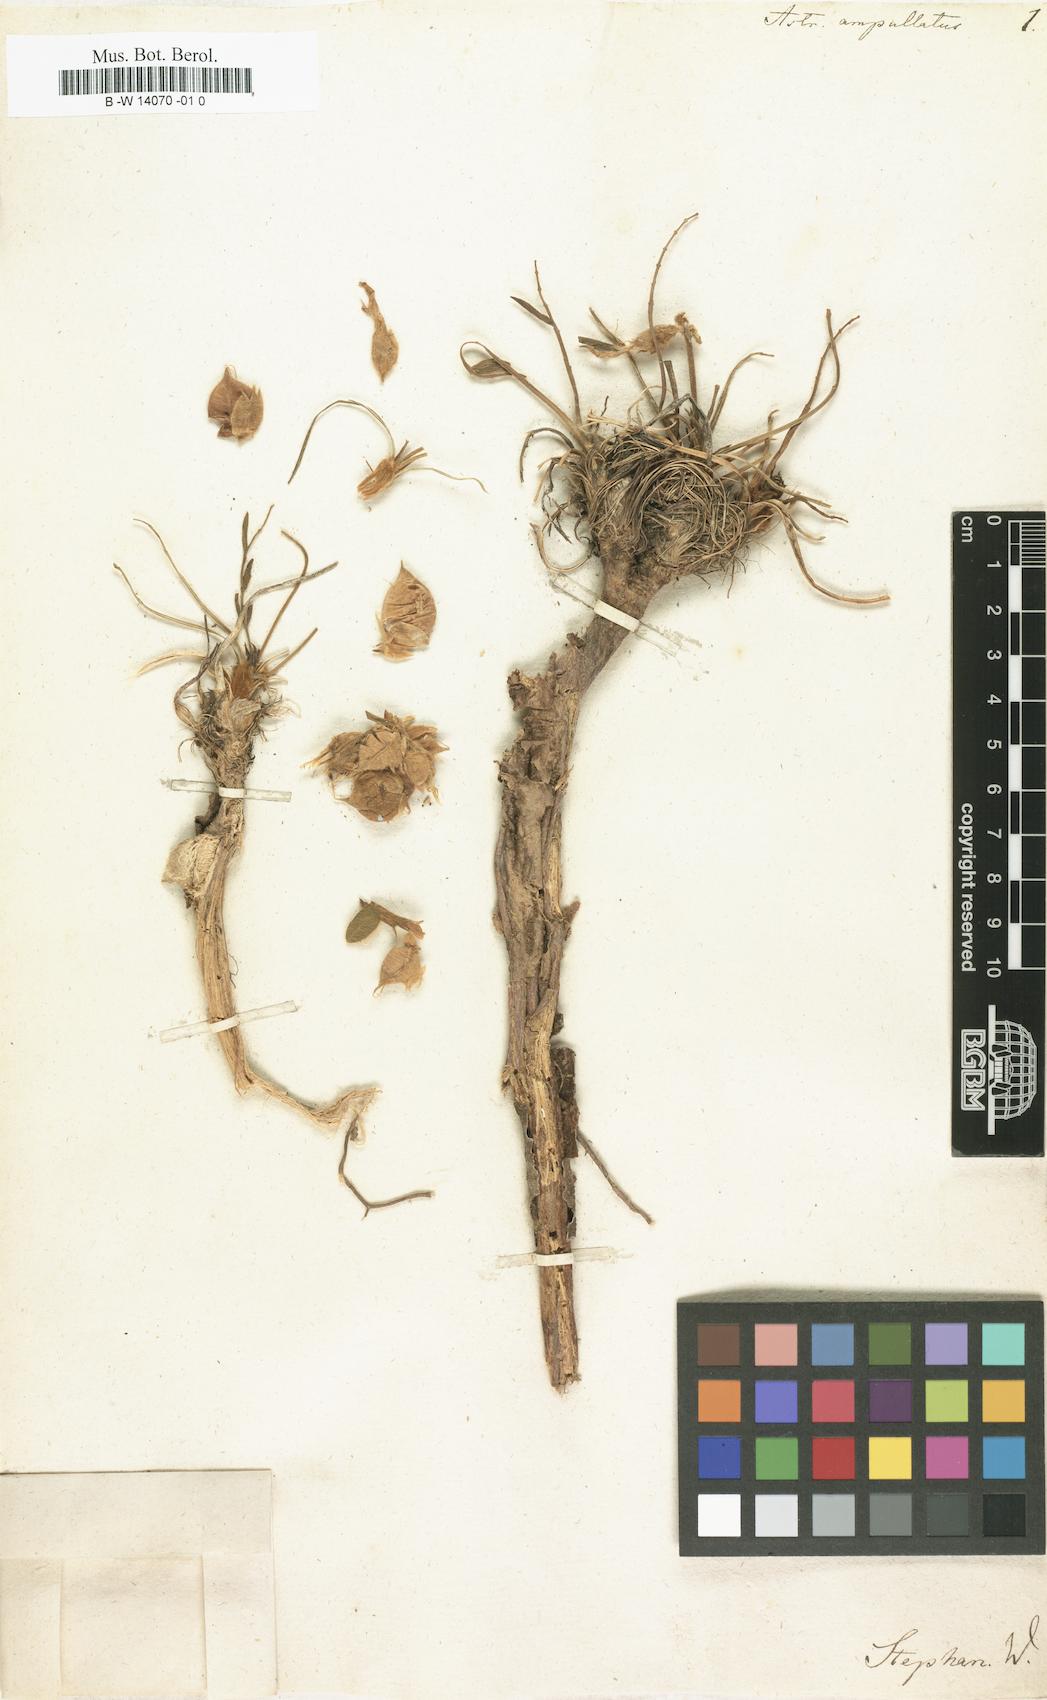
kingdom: Plantae
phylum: Tracheophyta
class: Magnoliopsida
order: Fabales
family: Fabaceae
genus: Oxytropis
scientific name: Oxytropis ampullata
